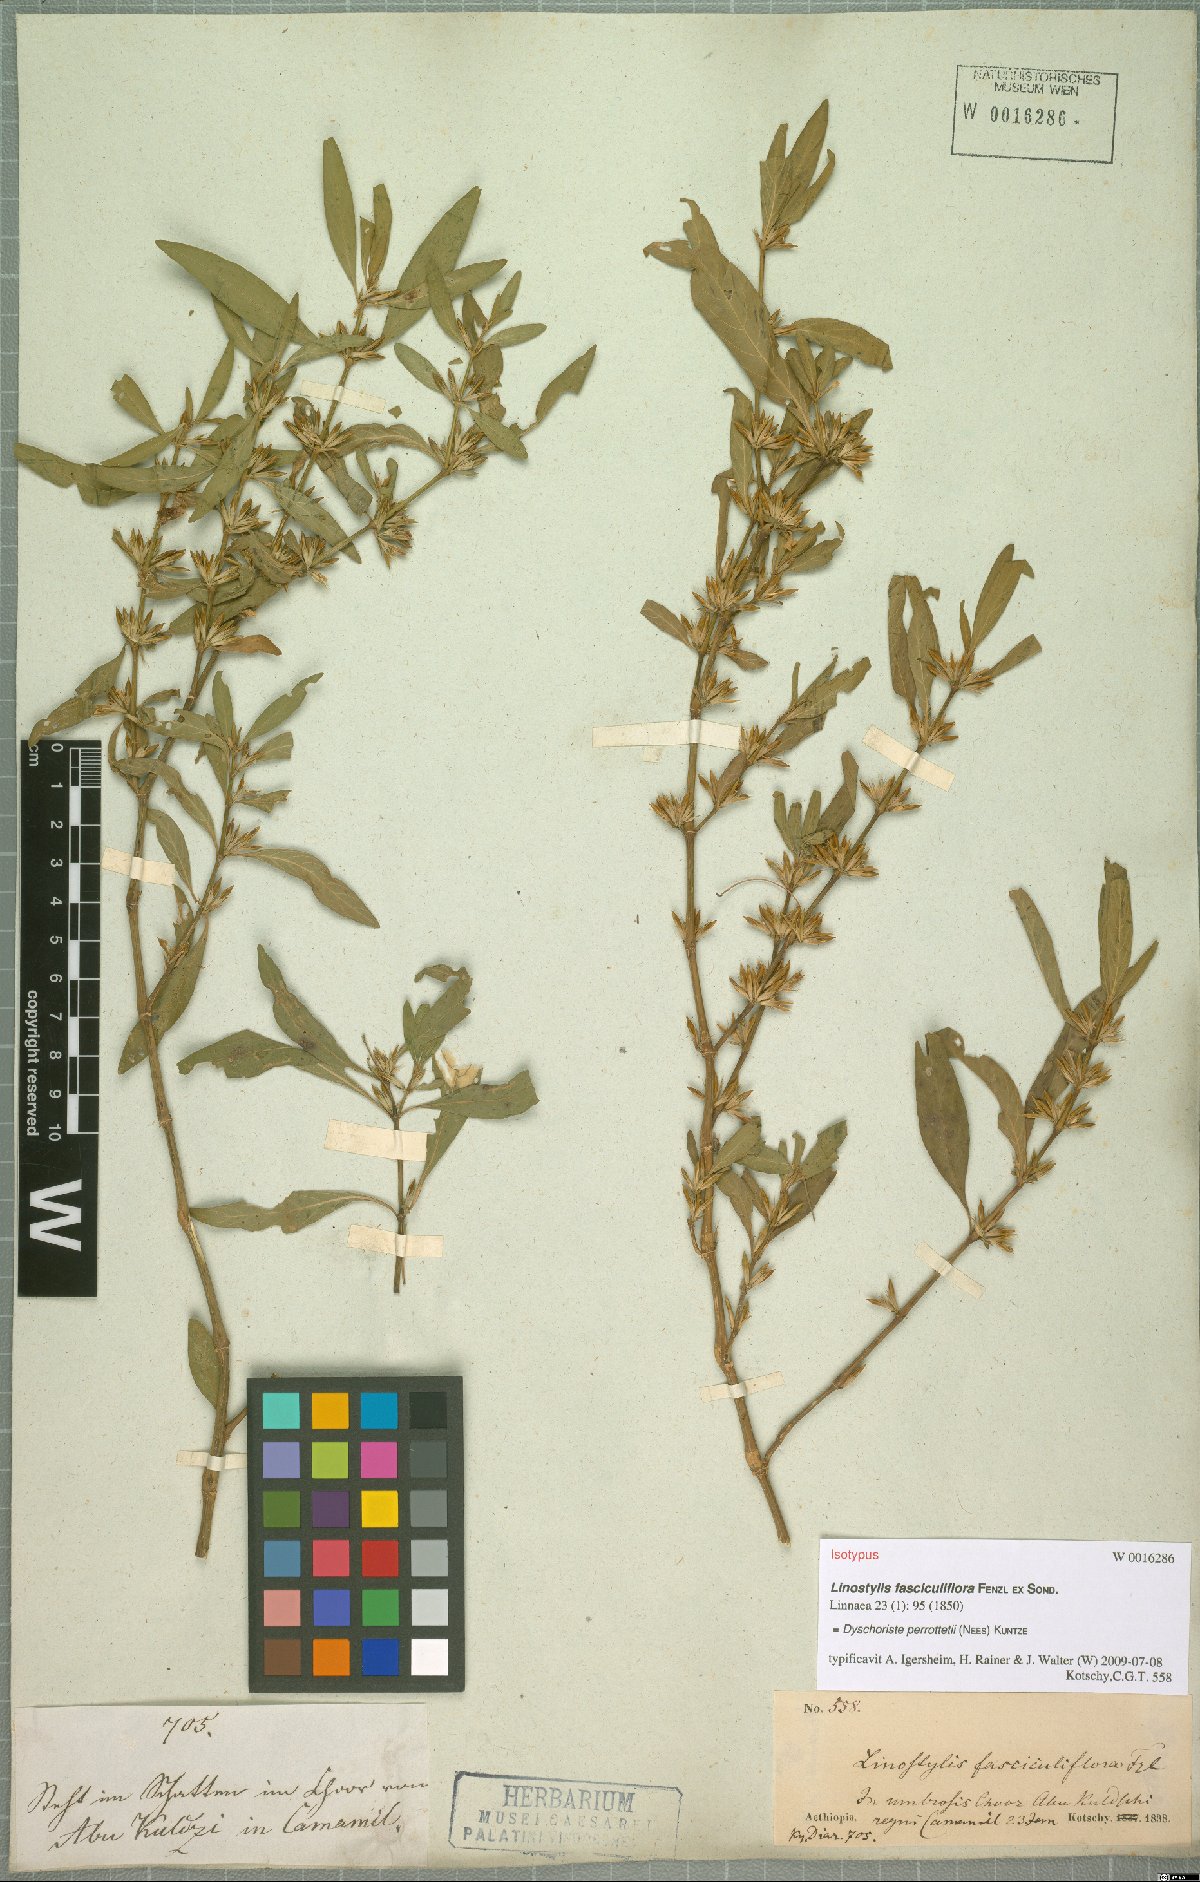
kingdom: Plantae
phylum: Tracheophyta
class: Magnoliopsida
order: Lamiales
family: Acanthaceae
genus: Dyschoriste
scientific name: Dyschoriste nagchana
